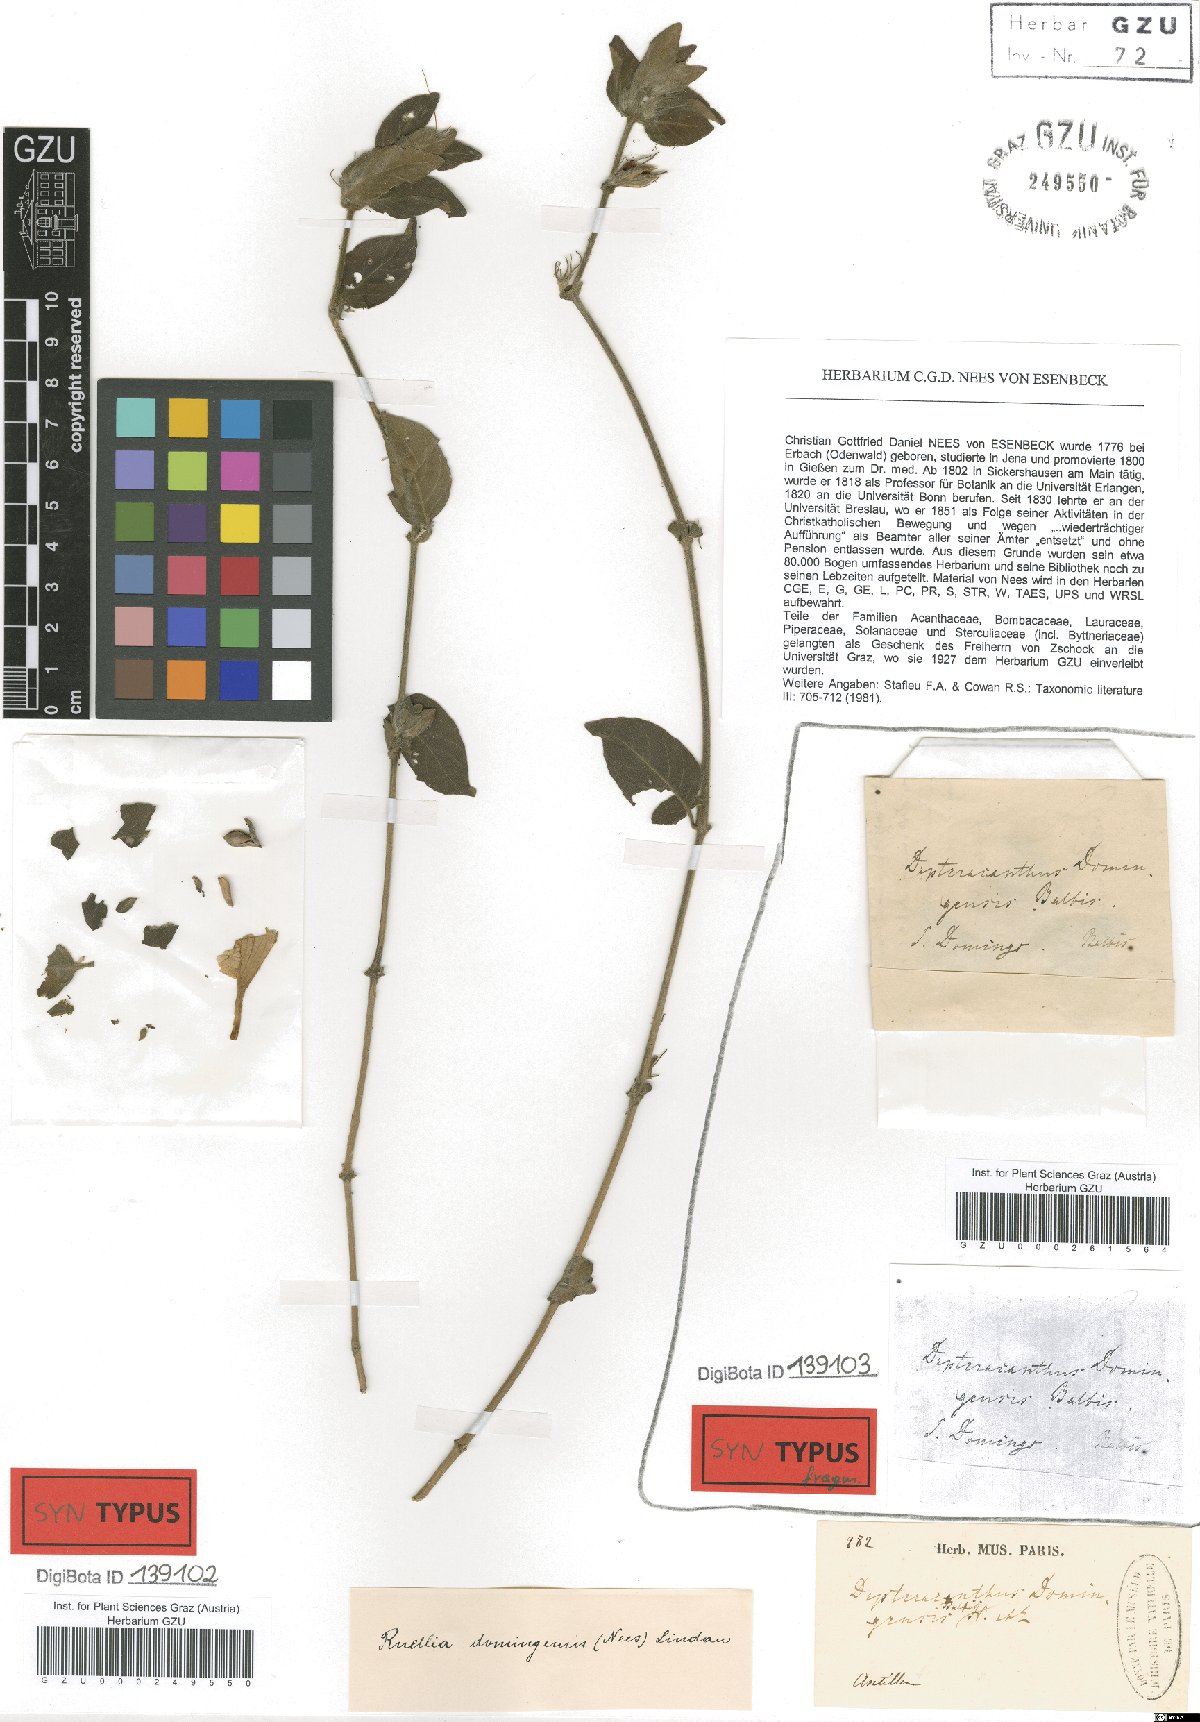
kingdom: Plantae
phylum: Tracheophyta
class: Magnoliopsida
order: Lamiales
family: Acanthaceae
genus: Ruellia
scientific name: Ruellia domingensis
